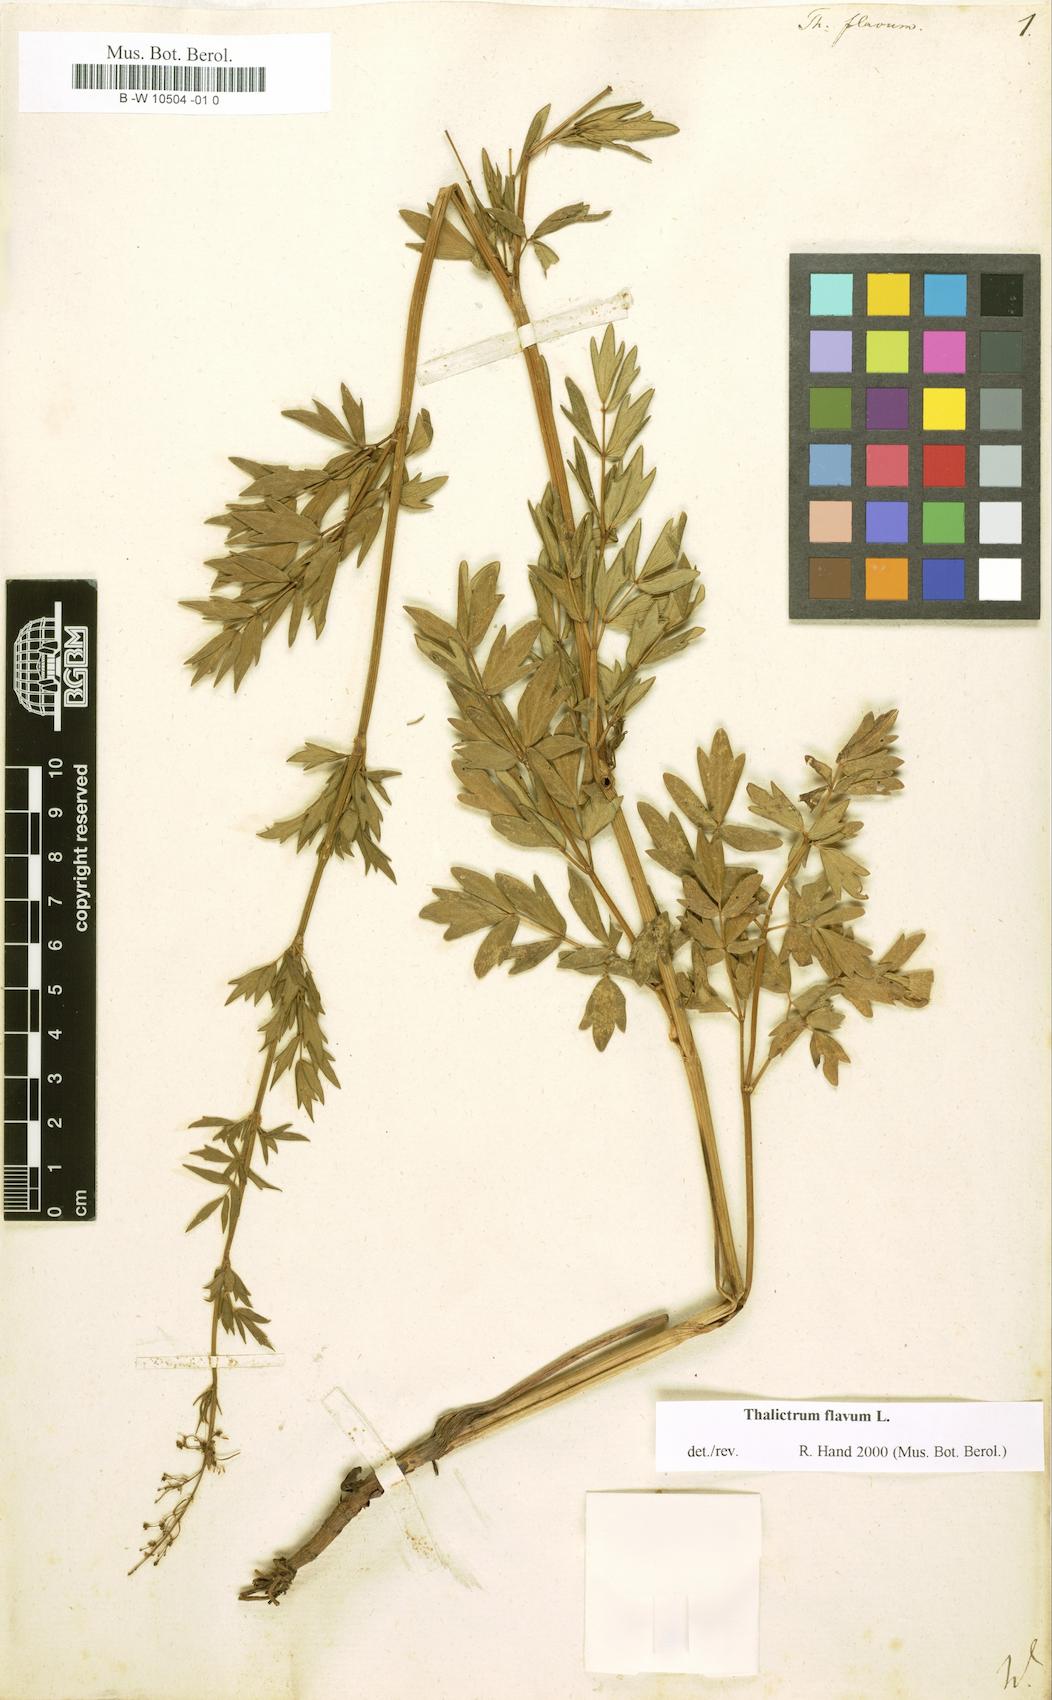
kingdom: Plantae
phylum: Tracheophyta
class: Magnoliopsida
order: Ranunculales
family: Ranunculaceae
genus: Thalictrum
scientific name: Thalictrum flavum
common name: Common meadow-rue
